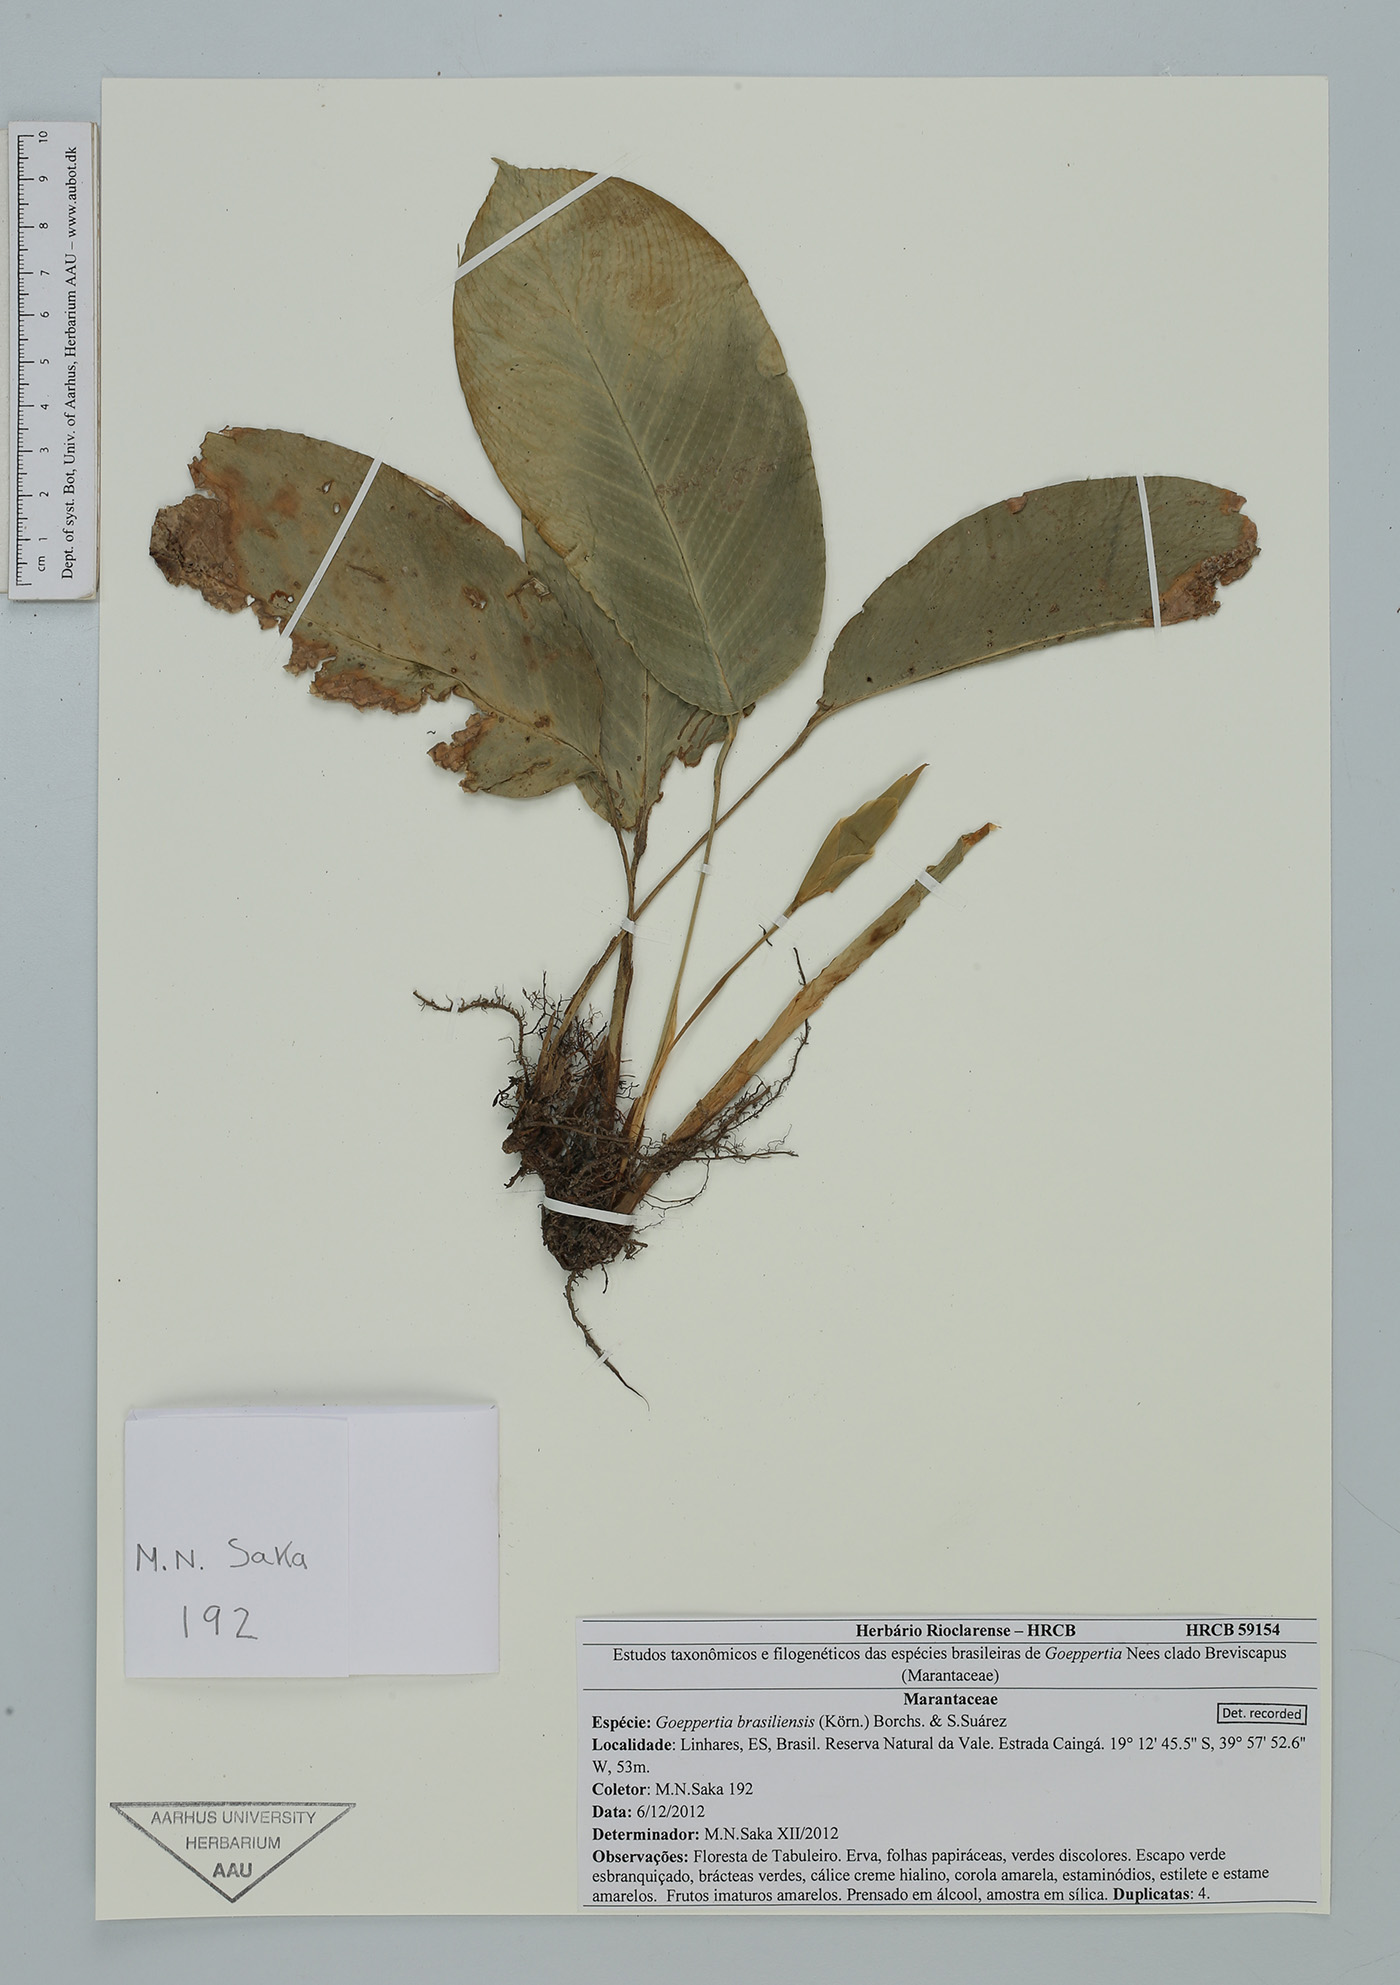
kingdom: Plantae
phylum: Tracheophyta
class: Liliopsida
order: Zingiberales
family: Marantaceae
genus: Goeppertia
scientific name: Goeppertia brasiliensis
